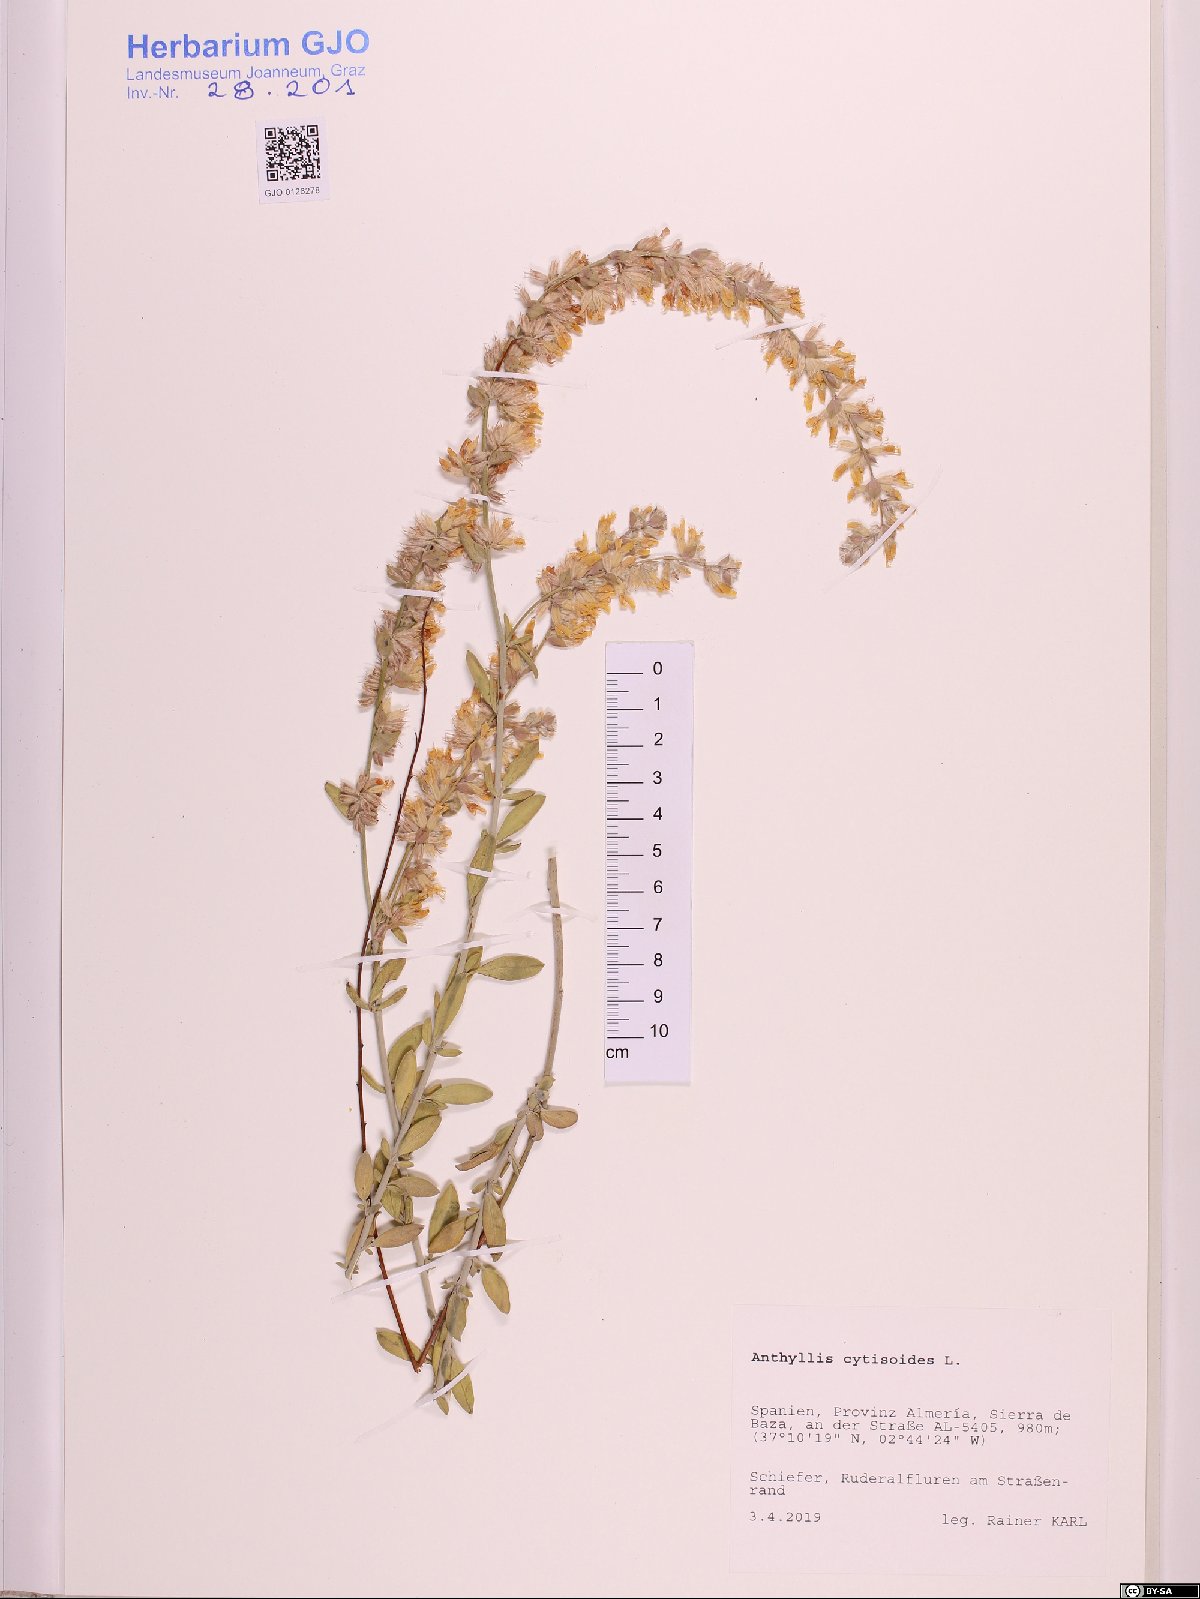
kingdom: Plantae
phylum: Tracheophyta
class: Magnoliopsida
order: Fabales
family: Fabaceae
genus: Anthyllis
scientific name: Anthyllis cytisoides
